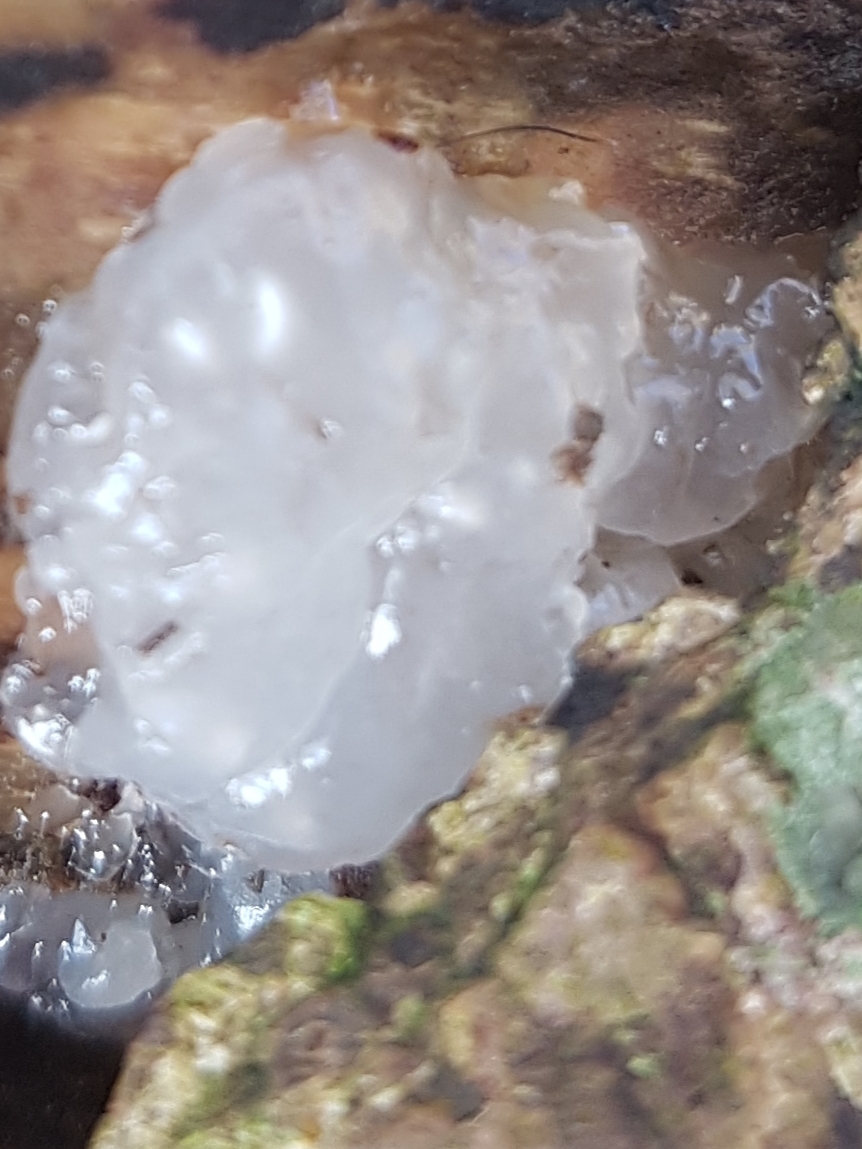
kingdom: Fungi
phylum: Basidiomycota
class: Agaricomycetes
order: Auriculariales
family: Hyaloriaceae
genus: Myxarium
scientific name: Myxarium nucleatum
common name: klar bævretop
